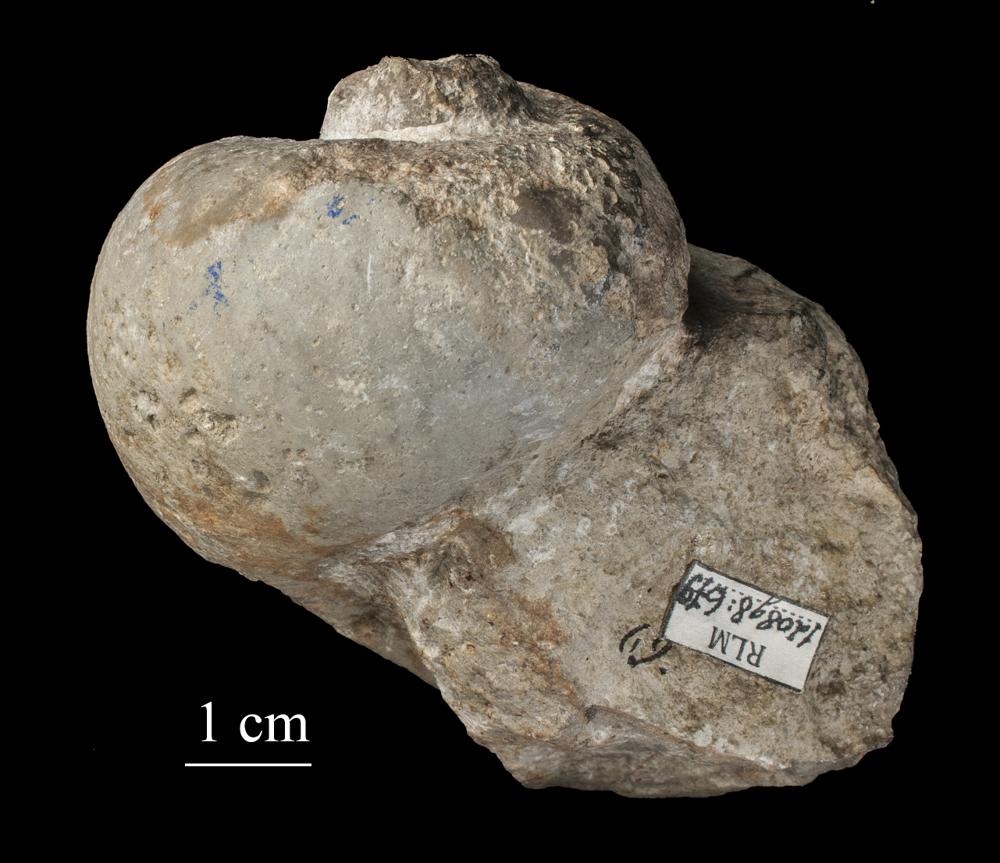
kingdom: Animalia
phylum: Mollusca
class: Gastropoda
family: Holopeidae
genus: Holopea
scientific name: Holopea ampullacea
